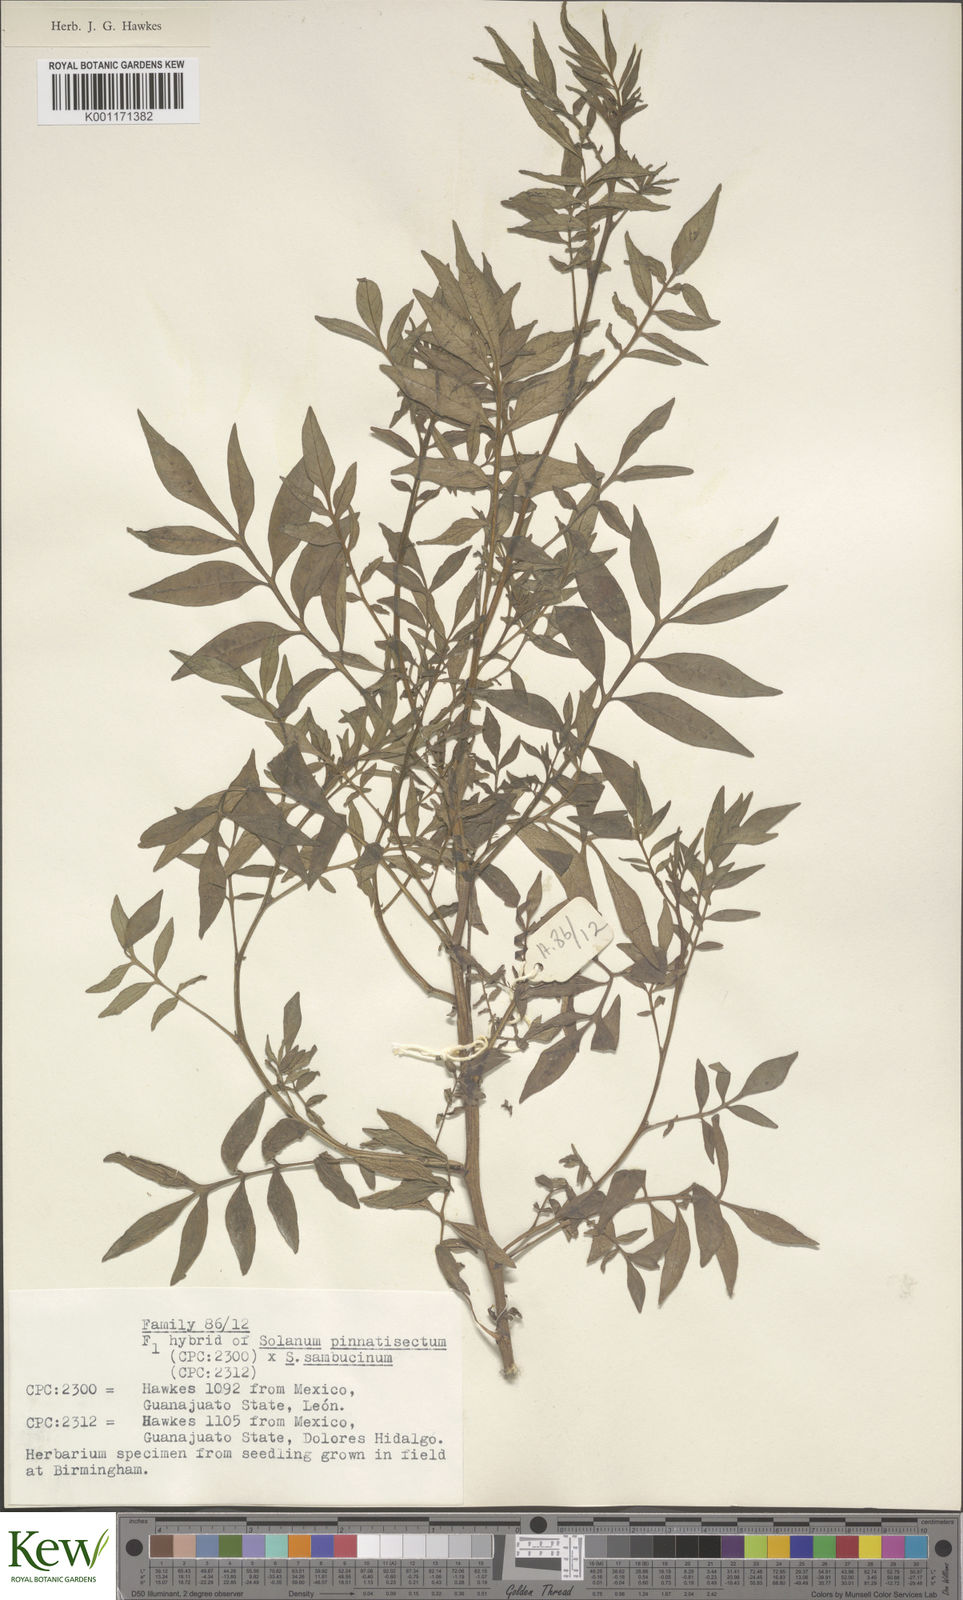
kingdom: Plantae
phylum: Tracheophyta
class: Magnoliopsida
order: Solanales
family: Solanaceae
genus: Solanum
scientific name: Solanum pinnatisectum
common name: Tansyleaf nightshade
